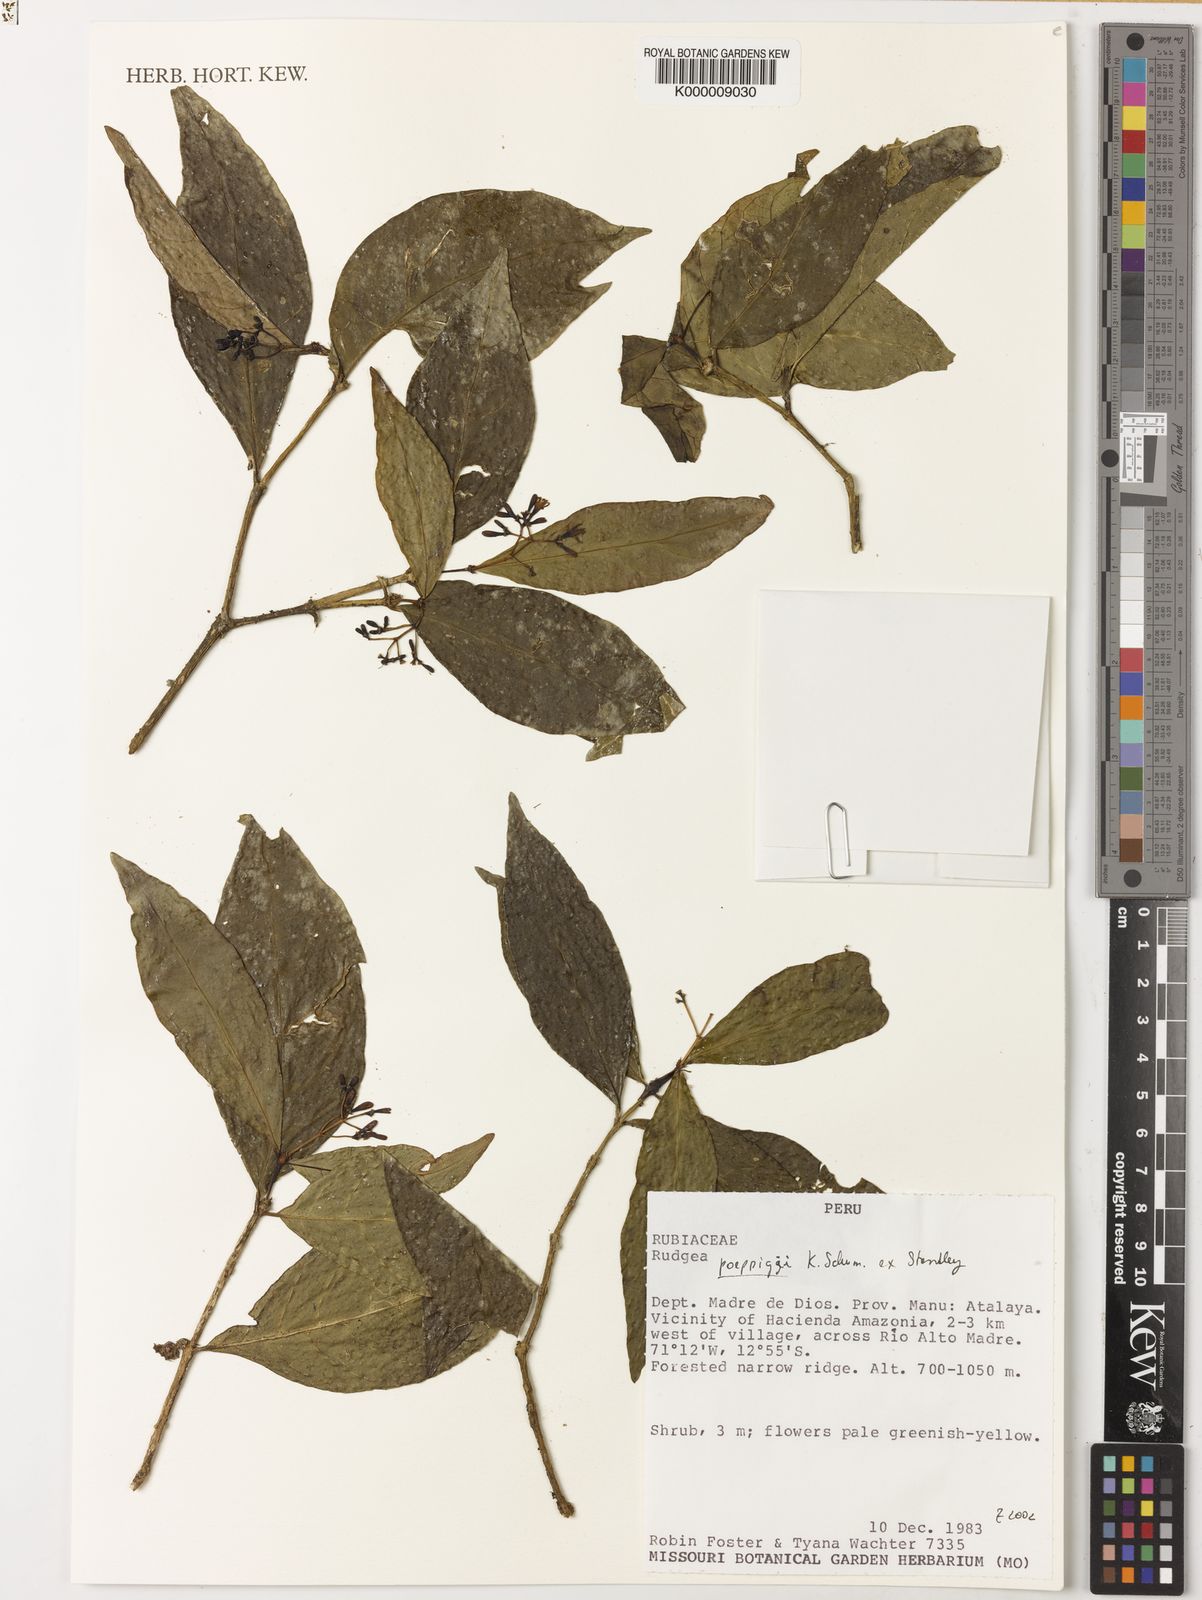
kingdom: Plantae
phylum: Tracheophyta
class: Magnoliopsida
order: Gentianales
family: Rubiaceae
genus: Rudgea
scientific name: Rudgea poeppigii
